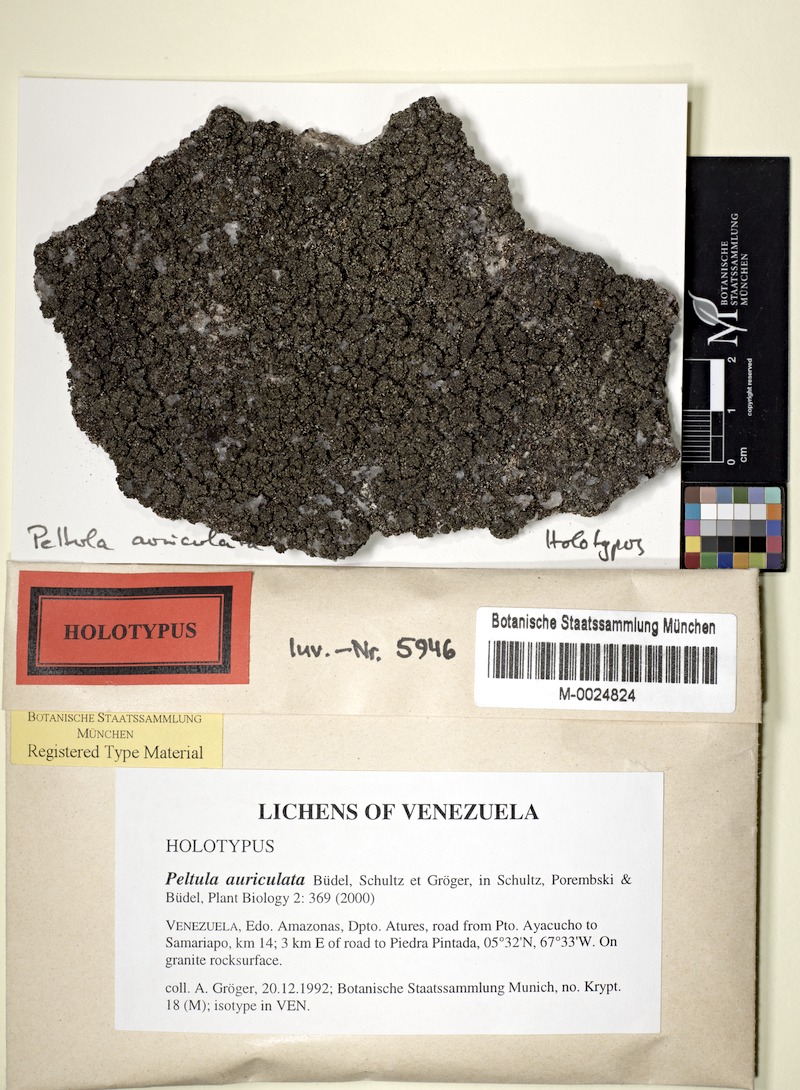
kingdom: Fungi
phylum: Ascomycota
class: Lichinomycetes
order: Lichinales
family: Peltulaceae
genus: Peltula
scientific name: Peltula auriculata
